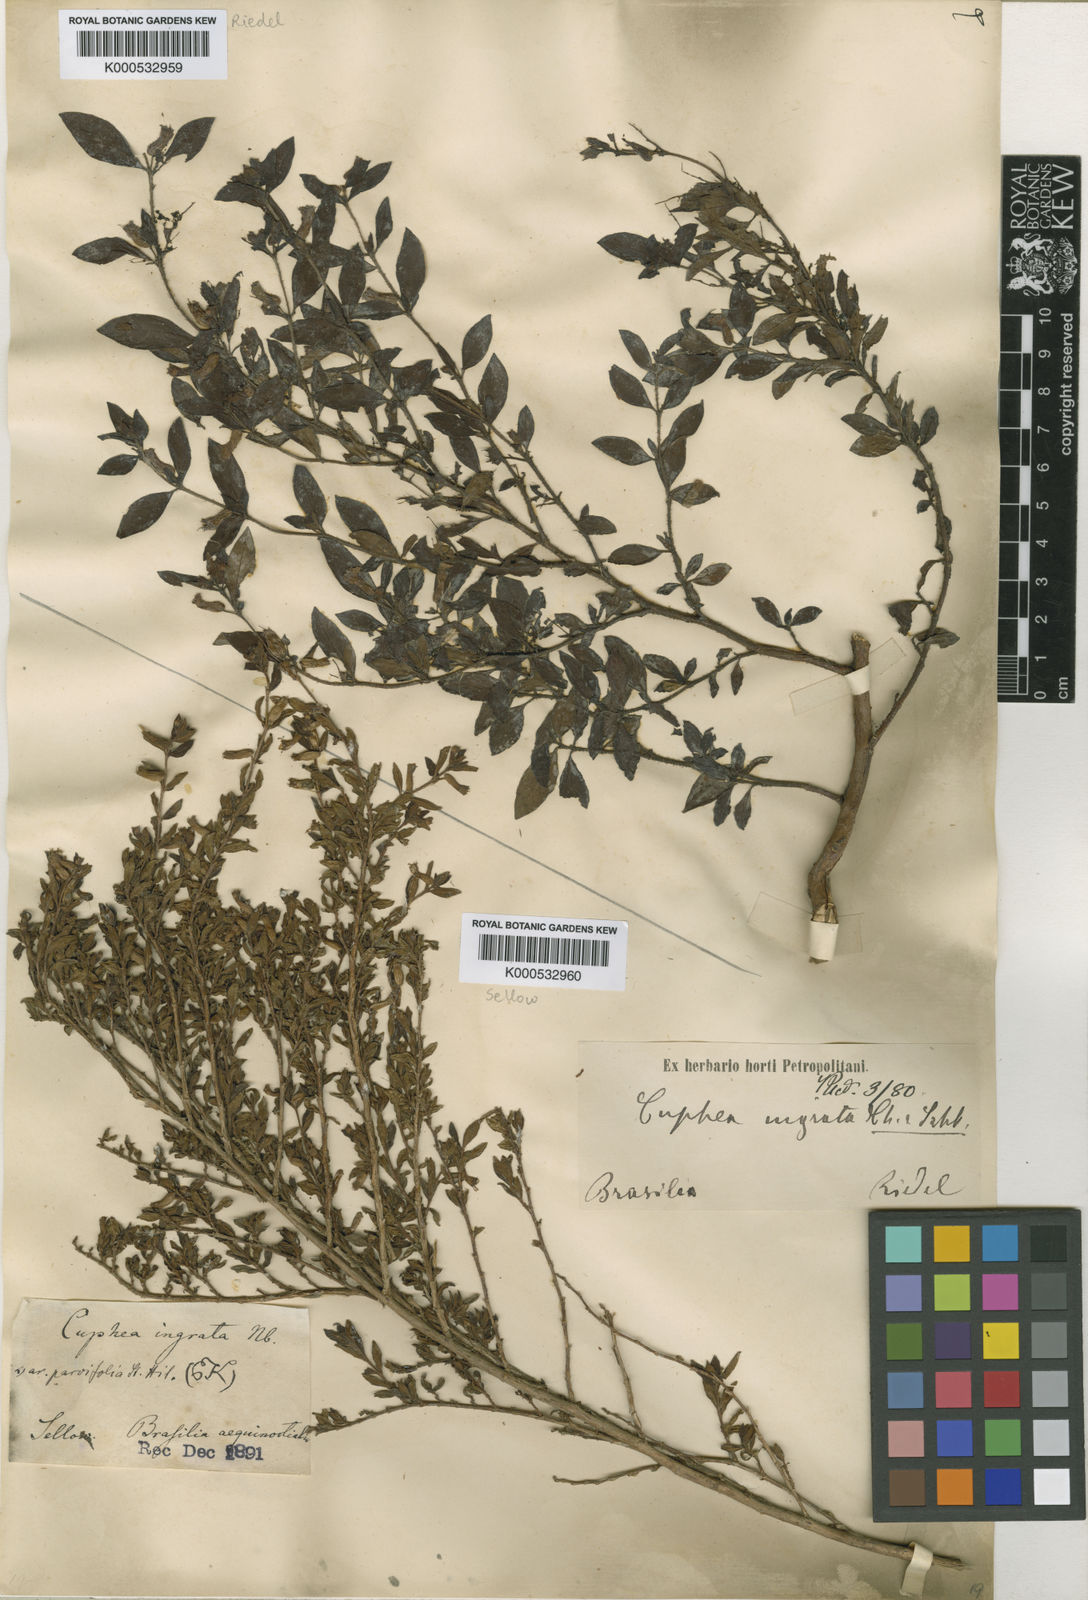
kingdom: Plantae
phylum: Tracheophyta
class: Magnoliopsida
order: Myrtales
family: Lythraceae
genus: Cuphea
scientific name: Cuphea ingrata
